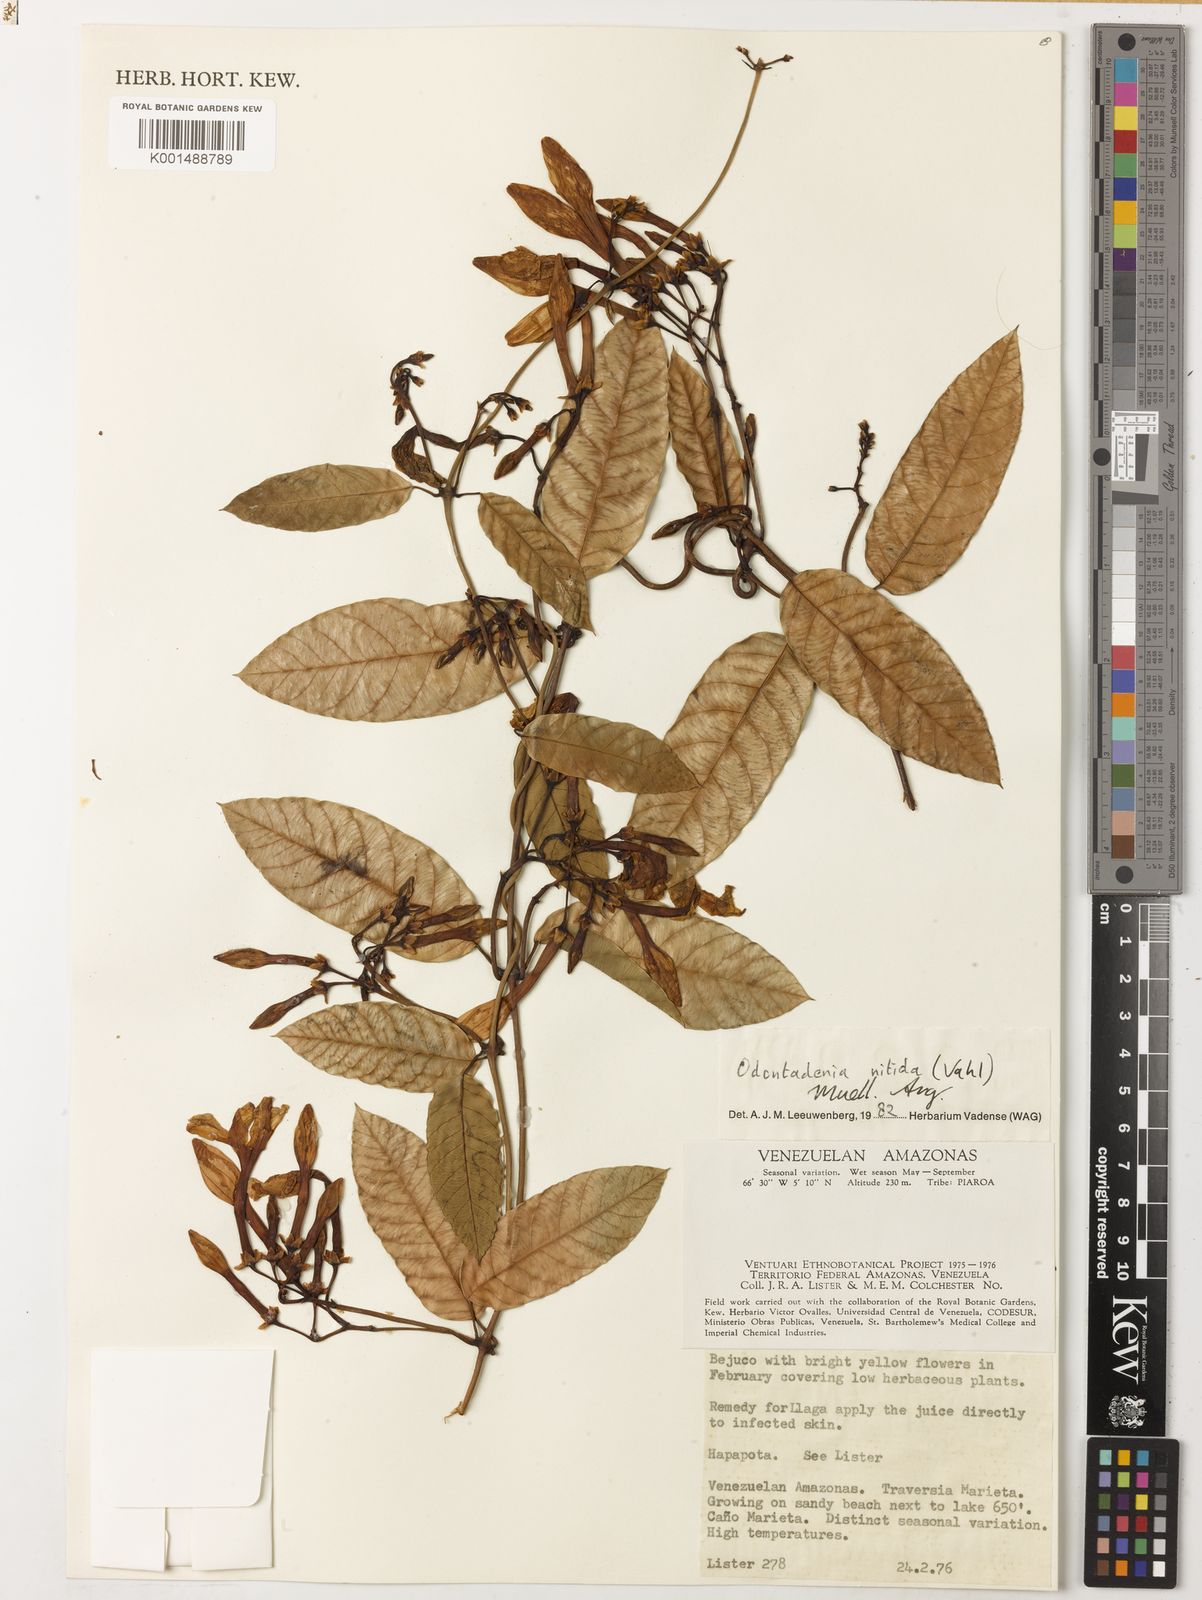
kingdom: Plantae
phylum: Tracheophyta
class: Magnoliopsida
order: Gentianales
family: Apocynaceae
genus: Odontadenia
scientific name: Odontadenia nitida
